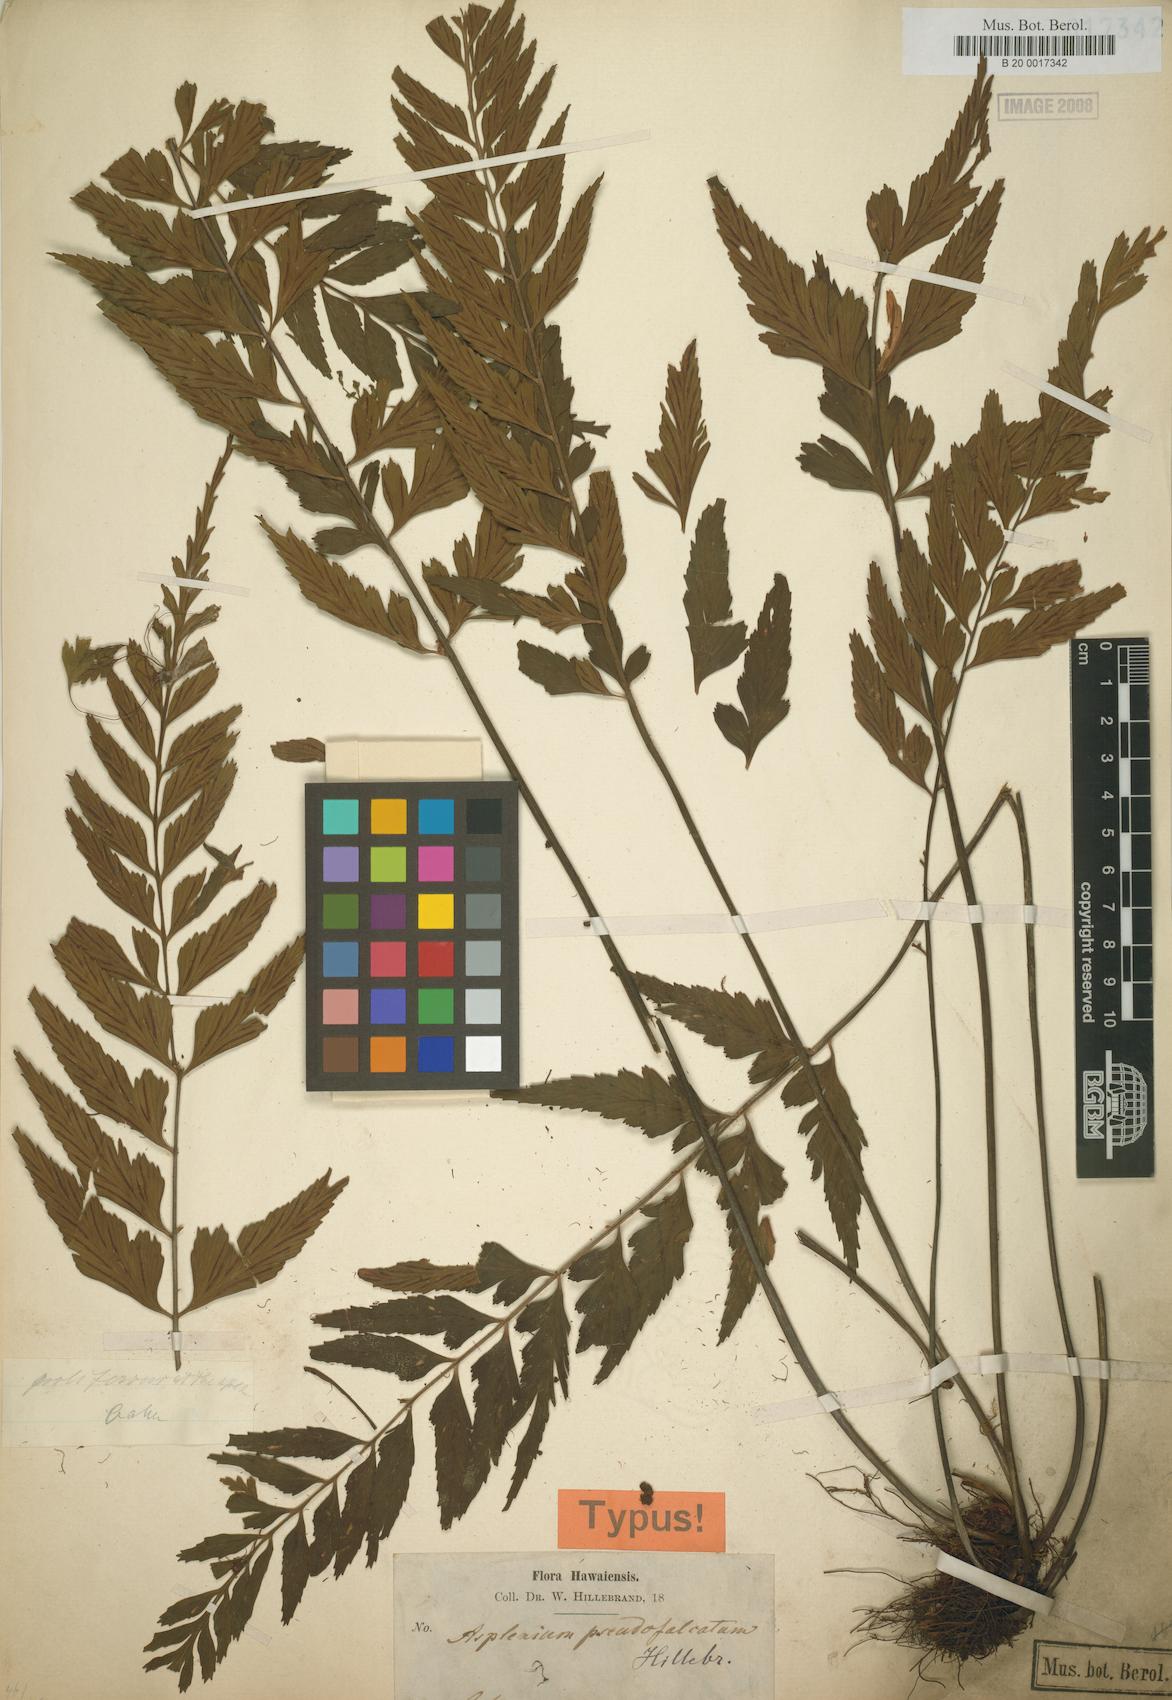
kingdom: Plantae
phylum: Tracheophyta
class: Polypodiopsida
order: Polypodiales
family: Aspleniaceae
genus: Asplenium
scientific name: Asplenium lobulatum
